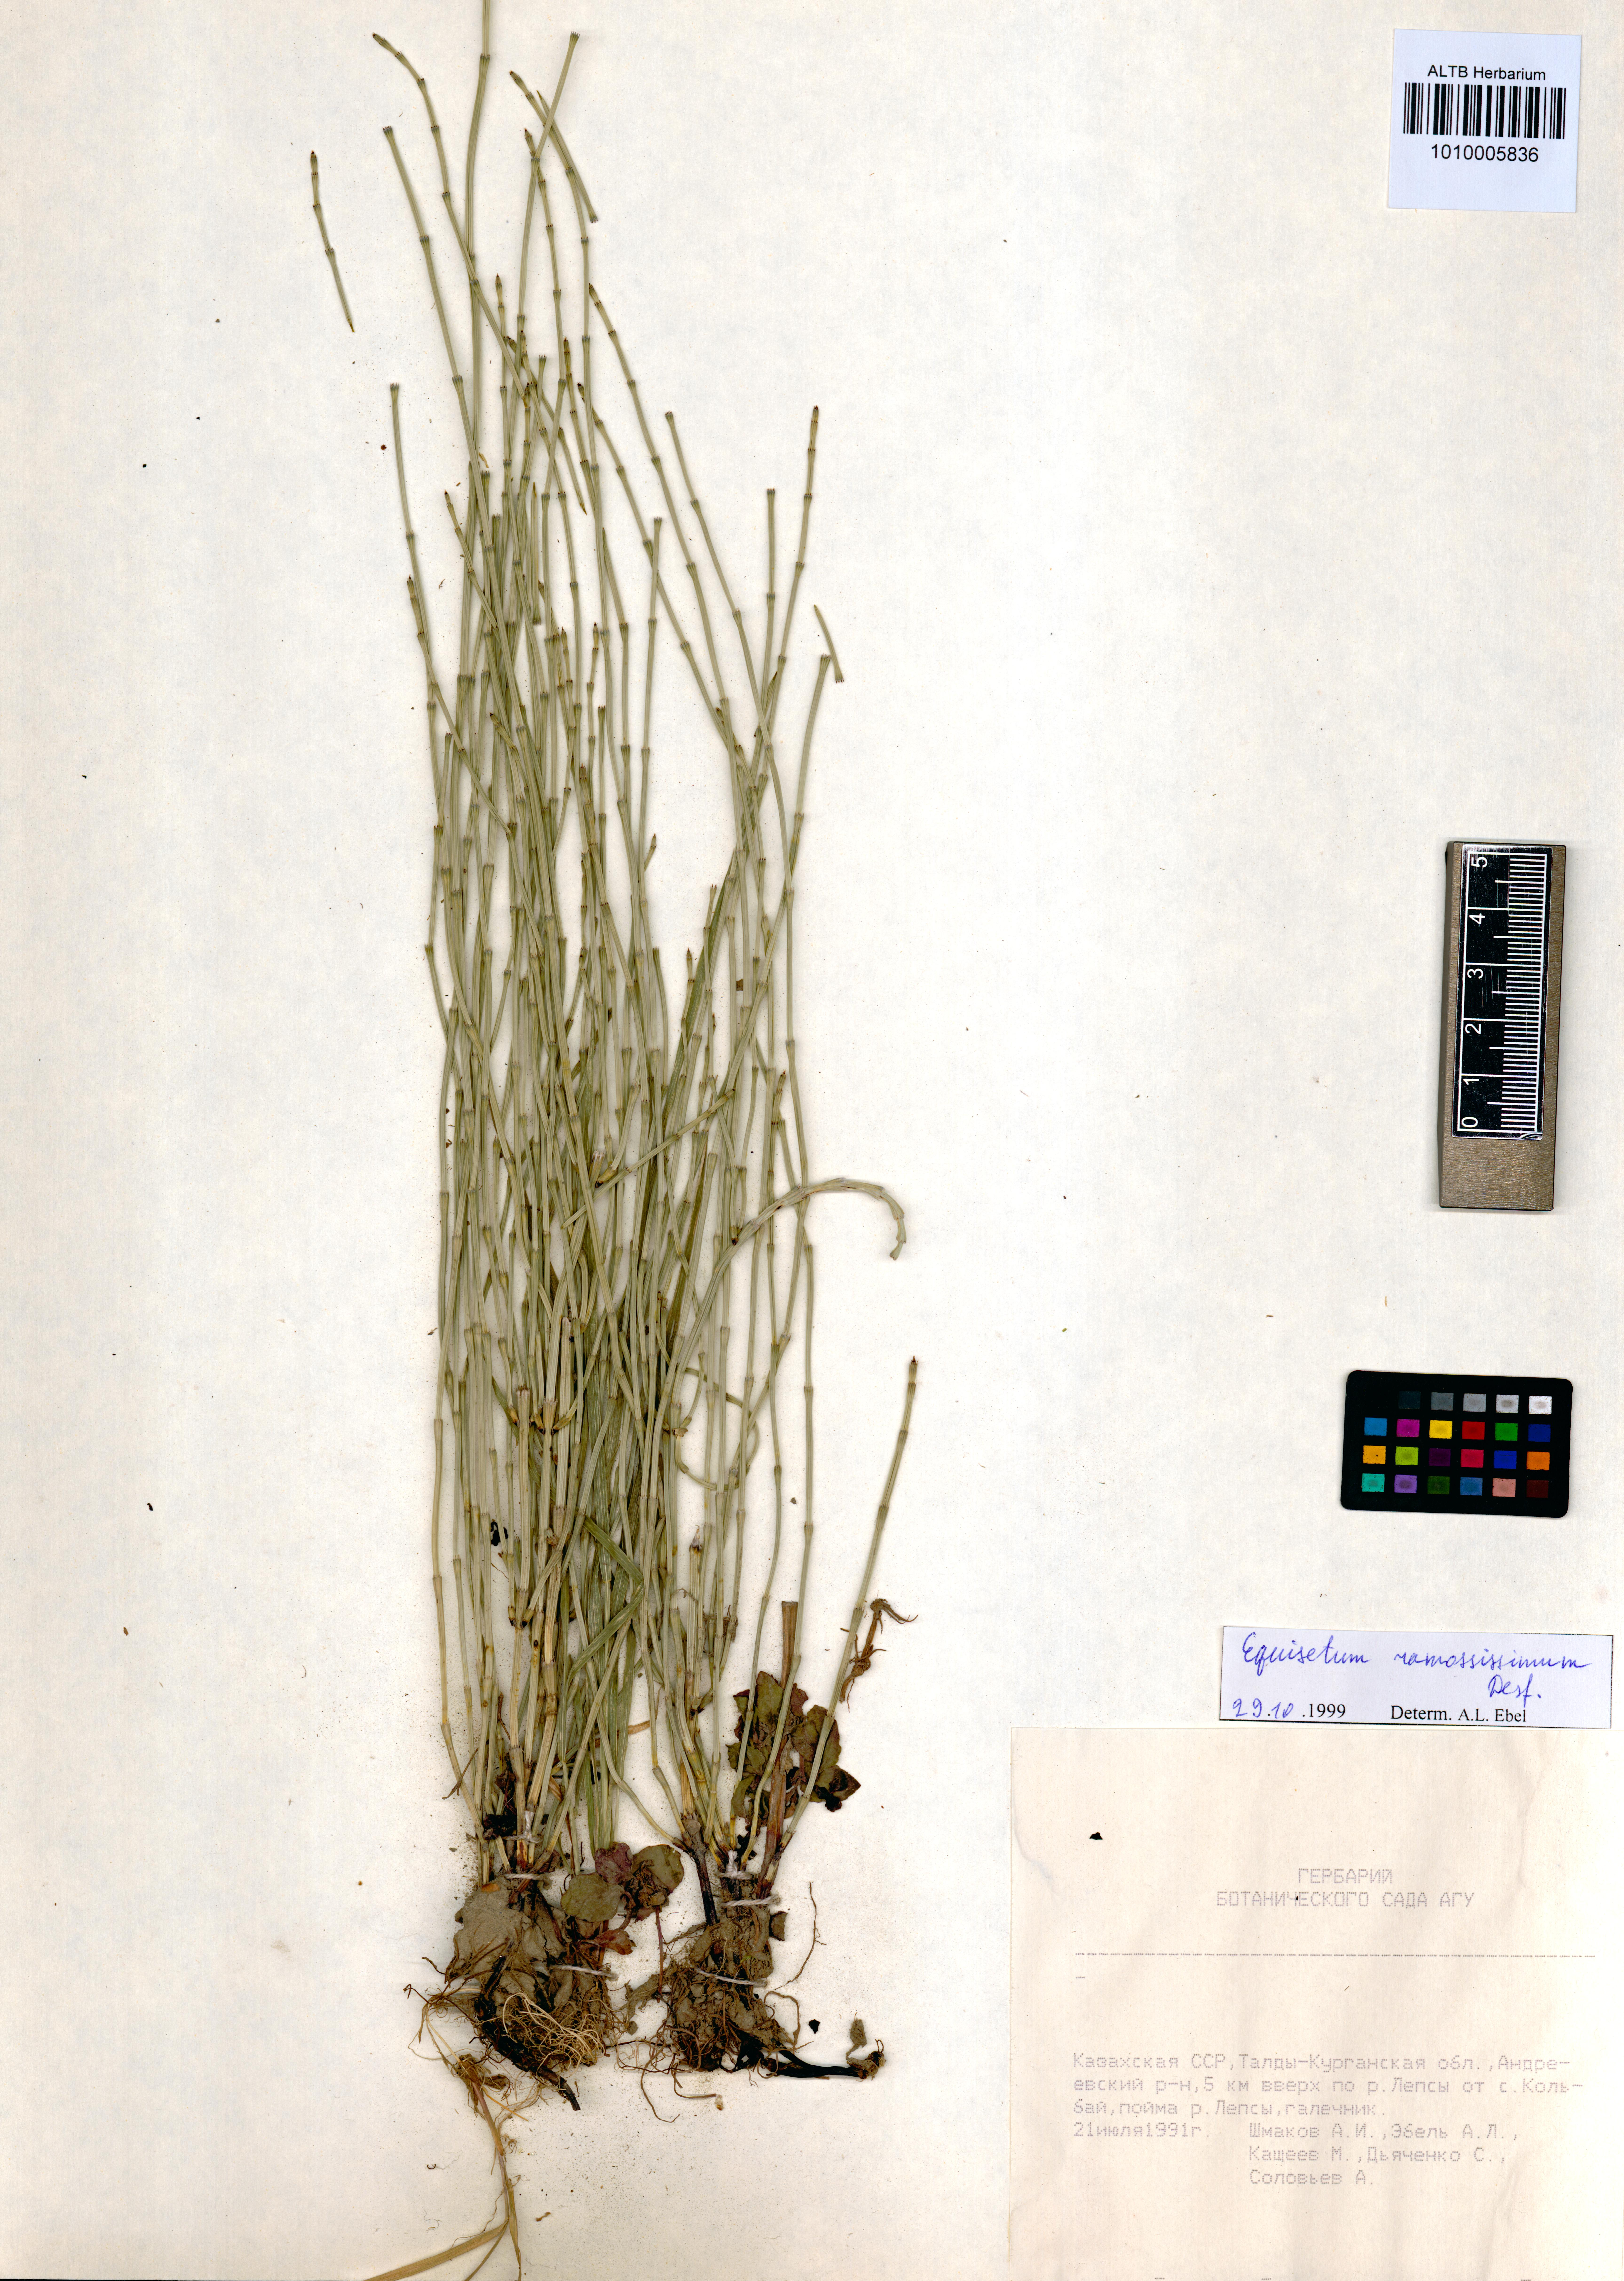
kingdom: Plantae
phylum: Tracheophyta
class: Polypodiopsida
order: Equisetales
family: Equisetaceae
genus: Equisetum
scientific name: Equisetum ramosissimum
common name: Branched horsetail
